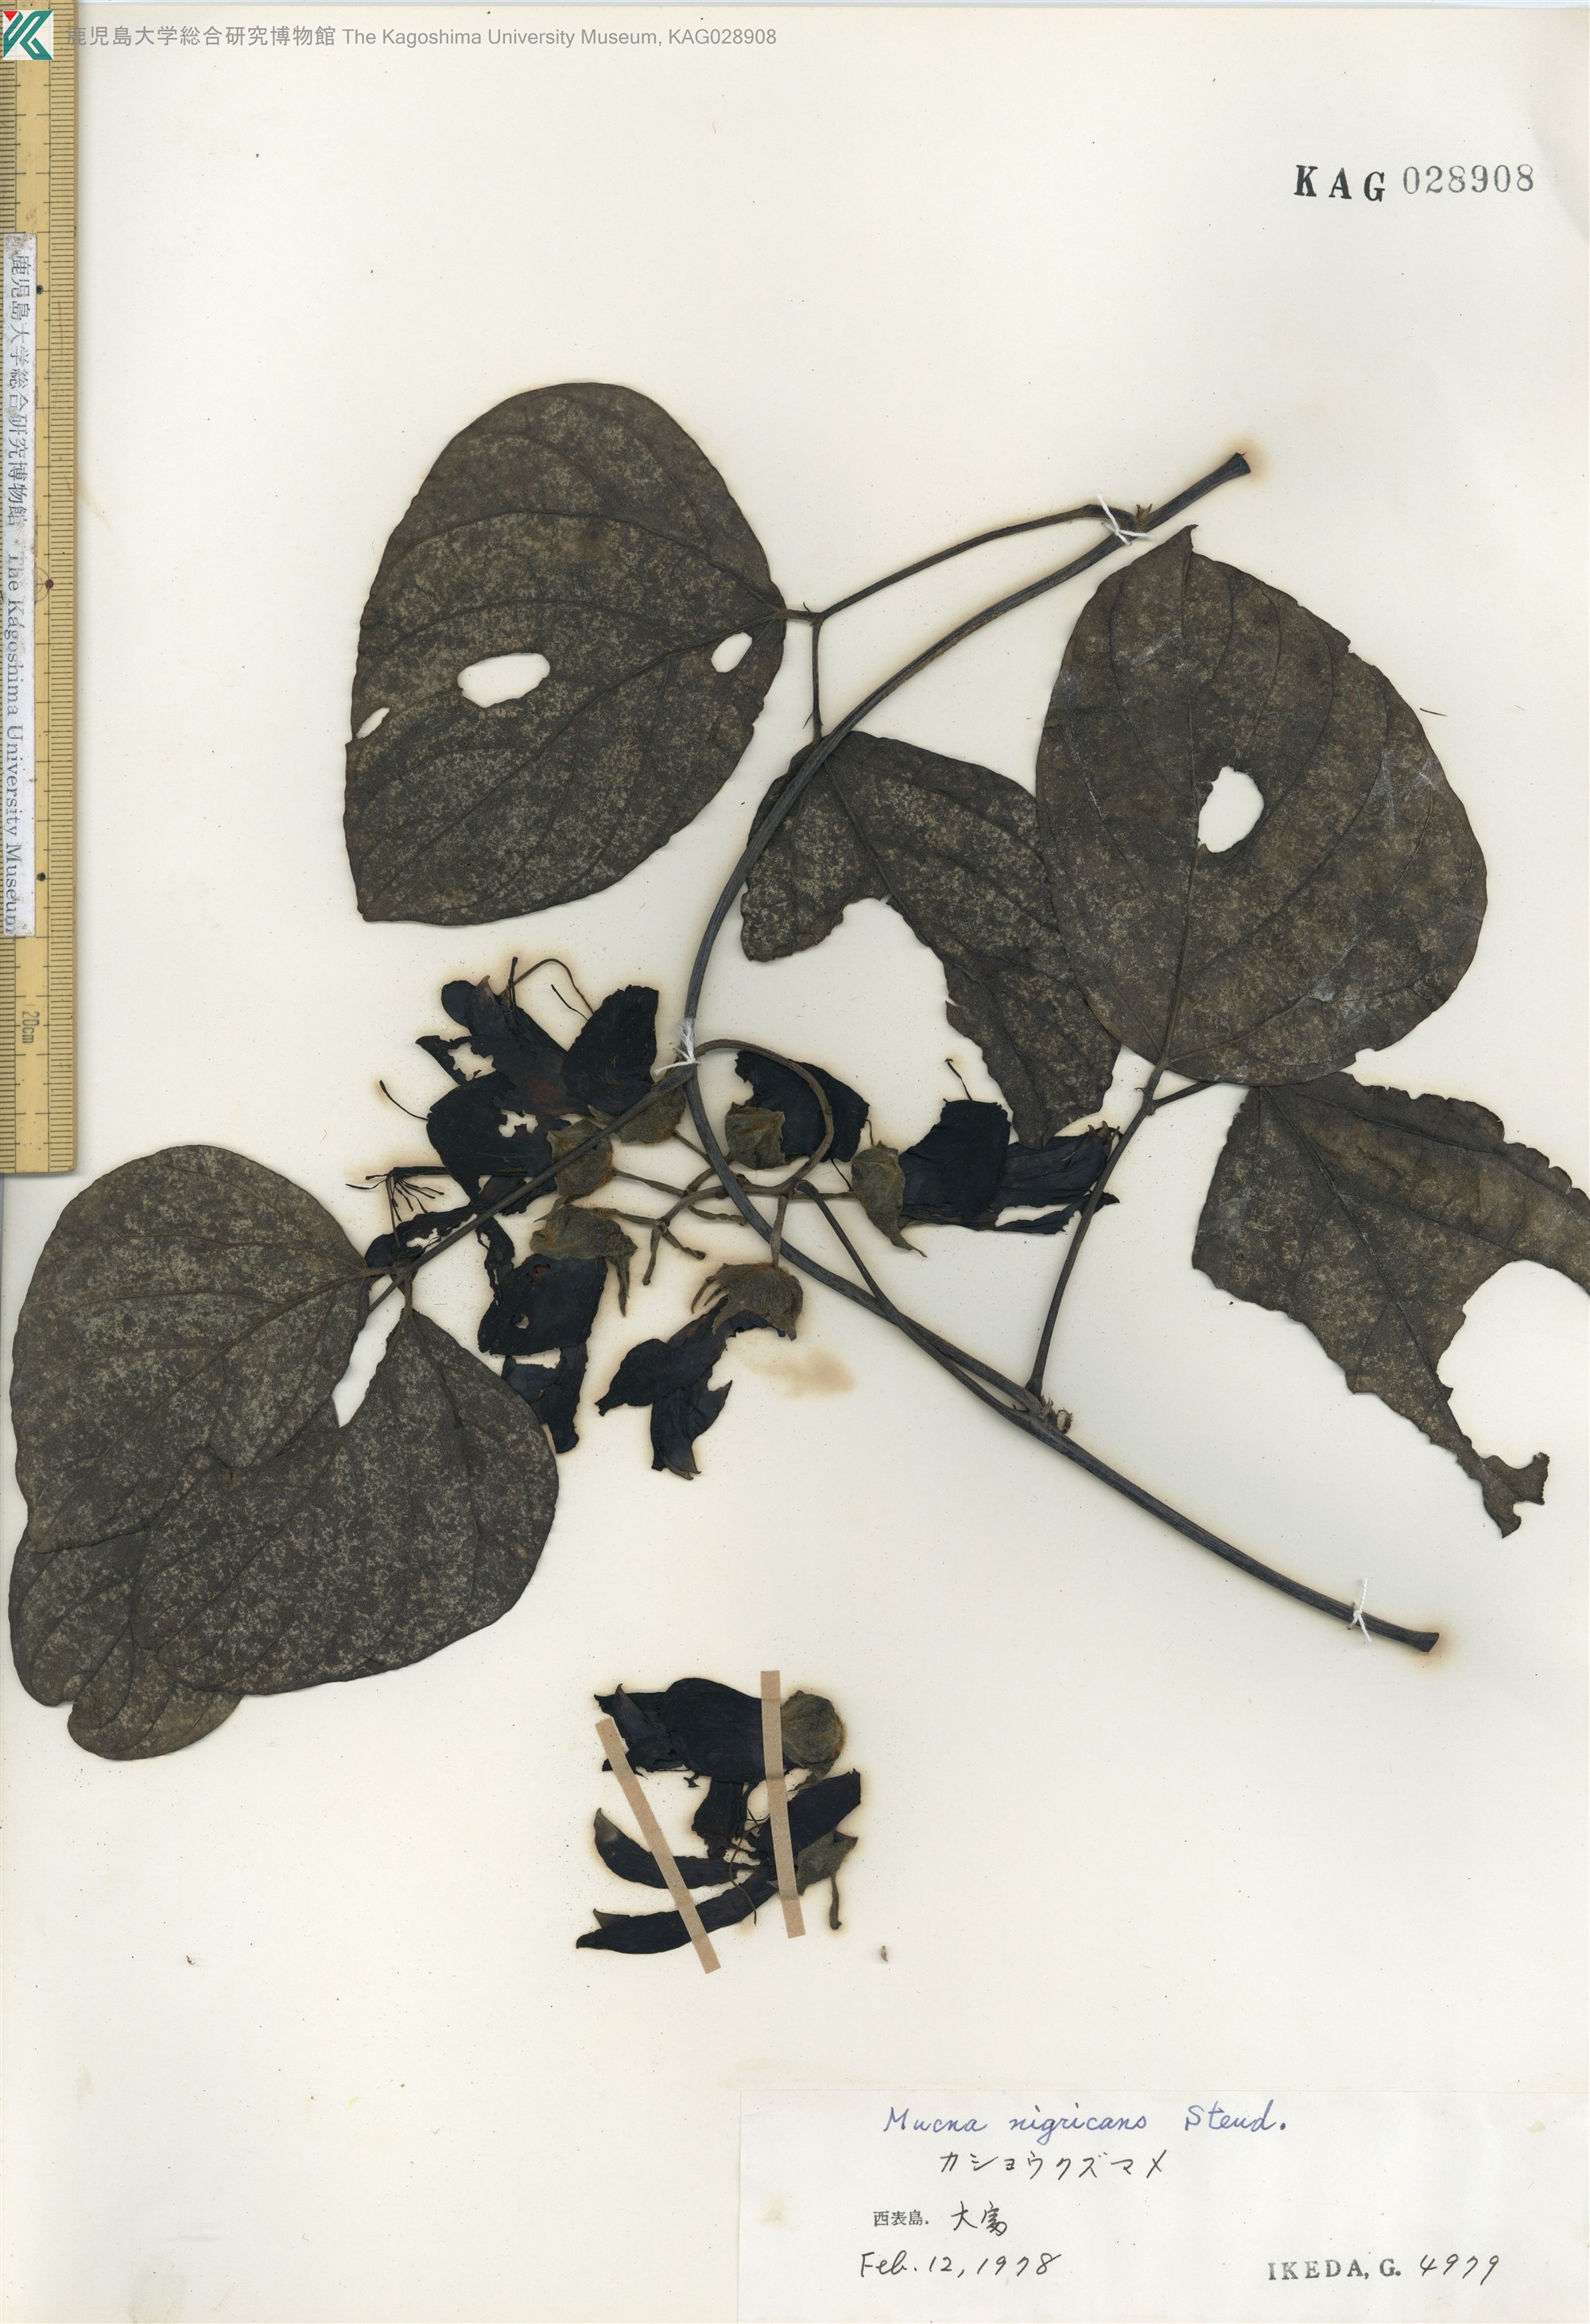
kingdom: Plantae
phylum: Tracheophyta
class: Magnoliopsida
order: Fabales
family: Fabaceae
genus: Mucuna
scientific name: Mucuna membranacea
